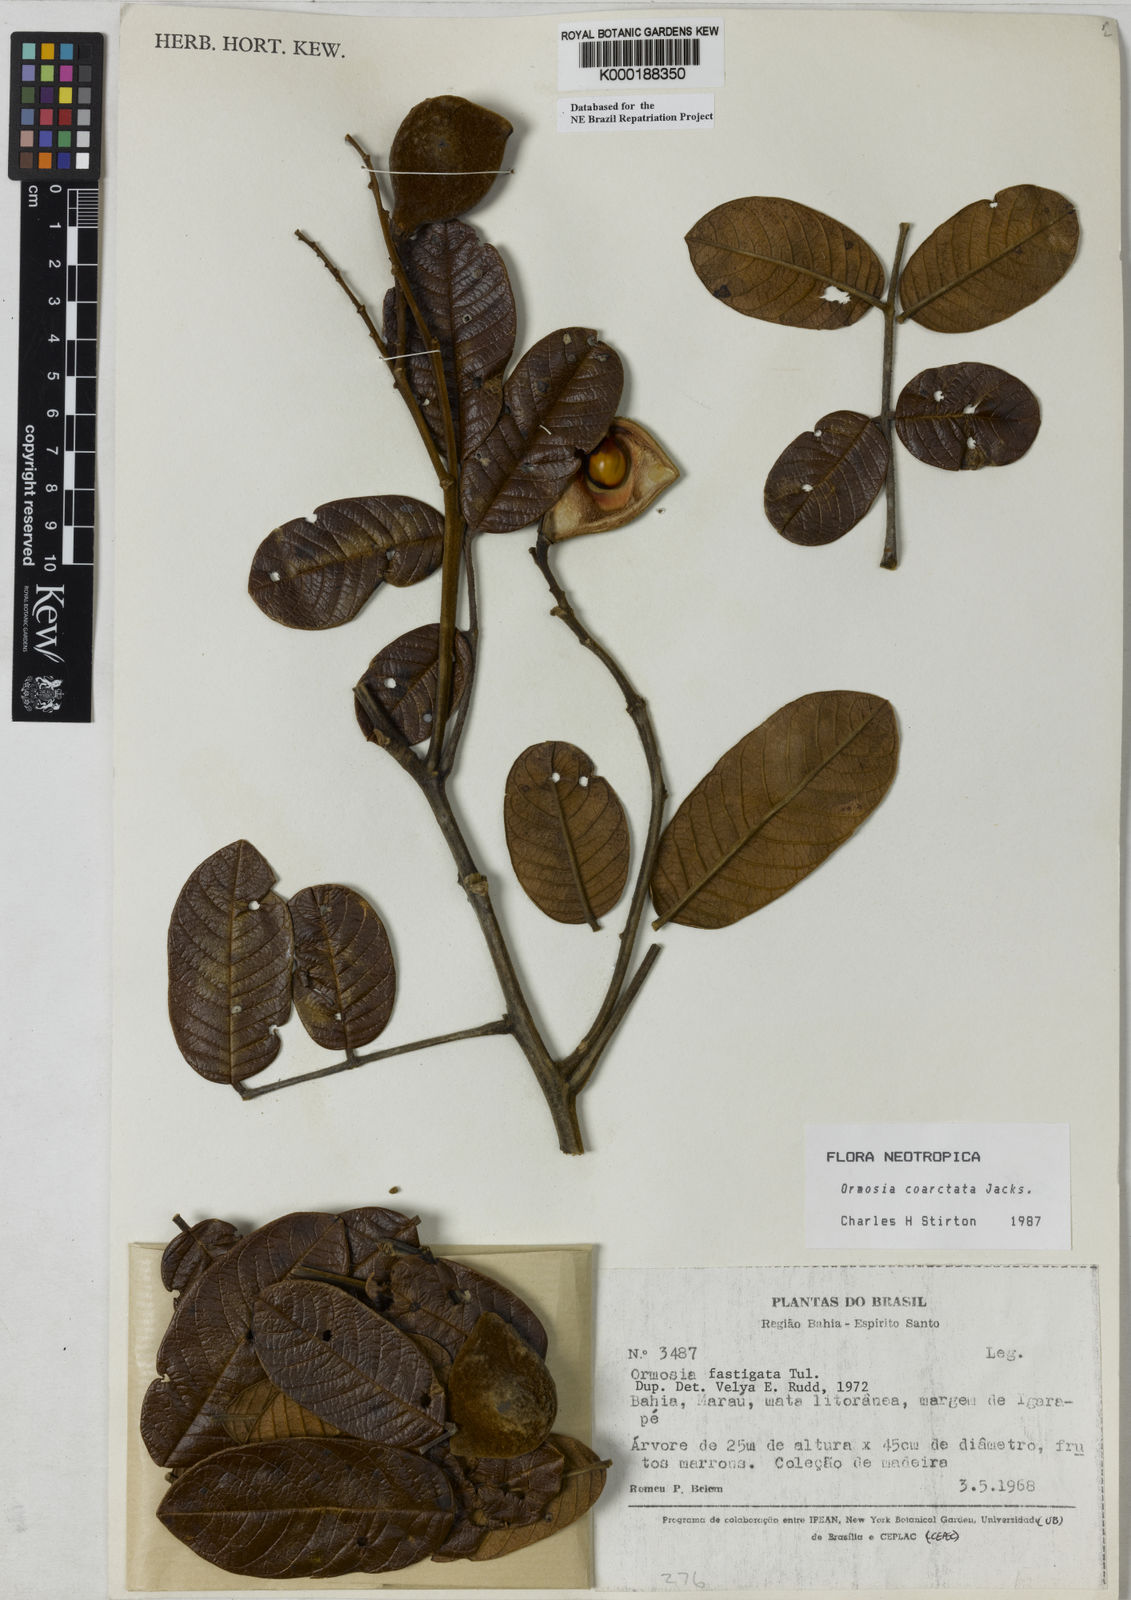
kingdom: Plantae
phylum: Tracheophyta
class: Magnoliopsida
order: Fabales
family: Fabaceae
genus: Ormosia
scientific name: Ormosia coarctata
